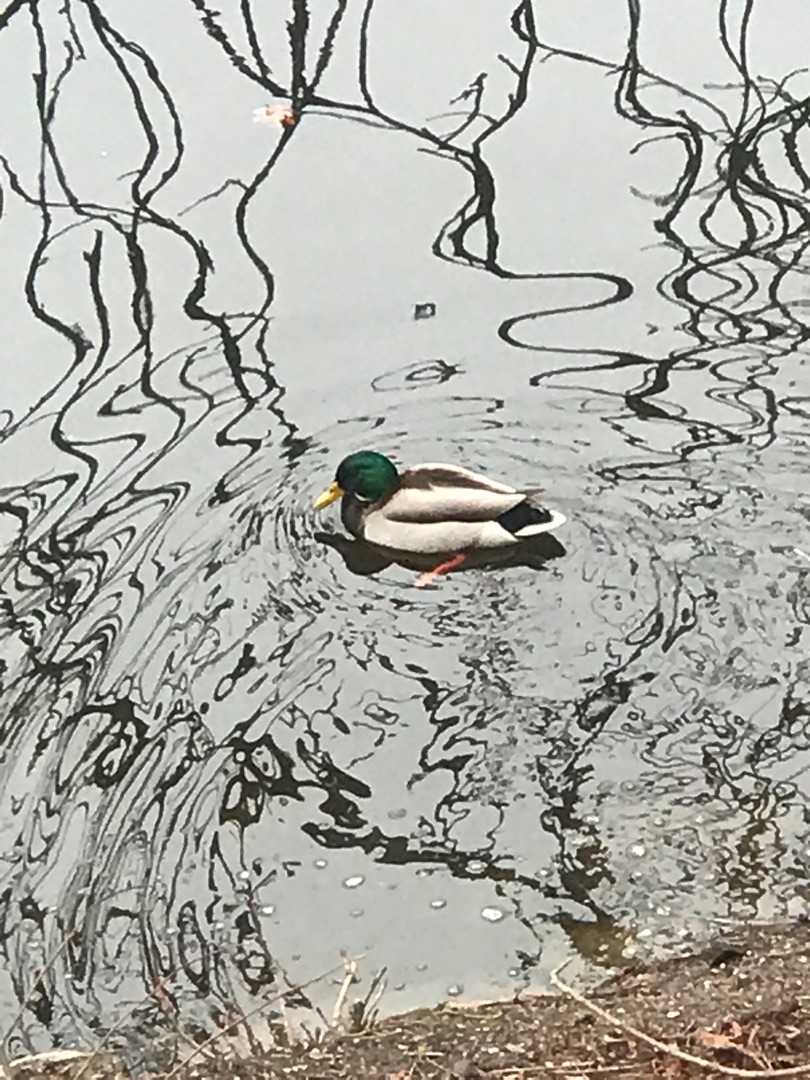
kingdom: Animalia
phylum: Chordata
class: Aves
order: Anseriformes
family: Anatidae
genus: Anas
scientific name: Anas platyrhynchos
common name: Gråand
